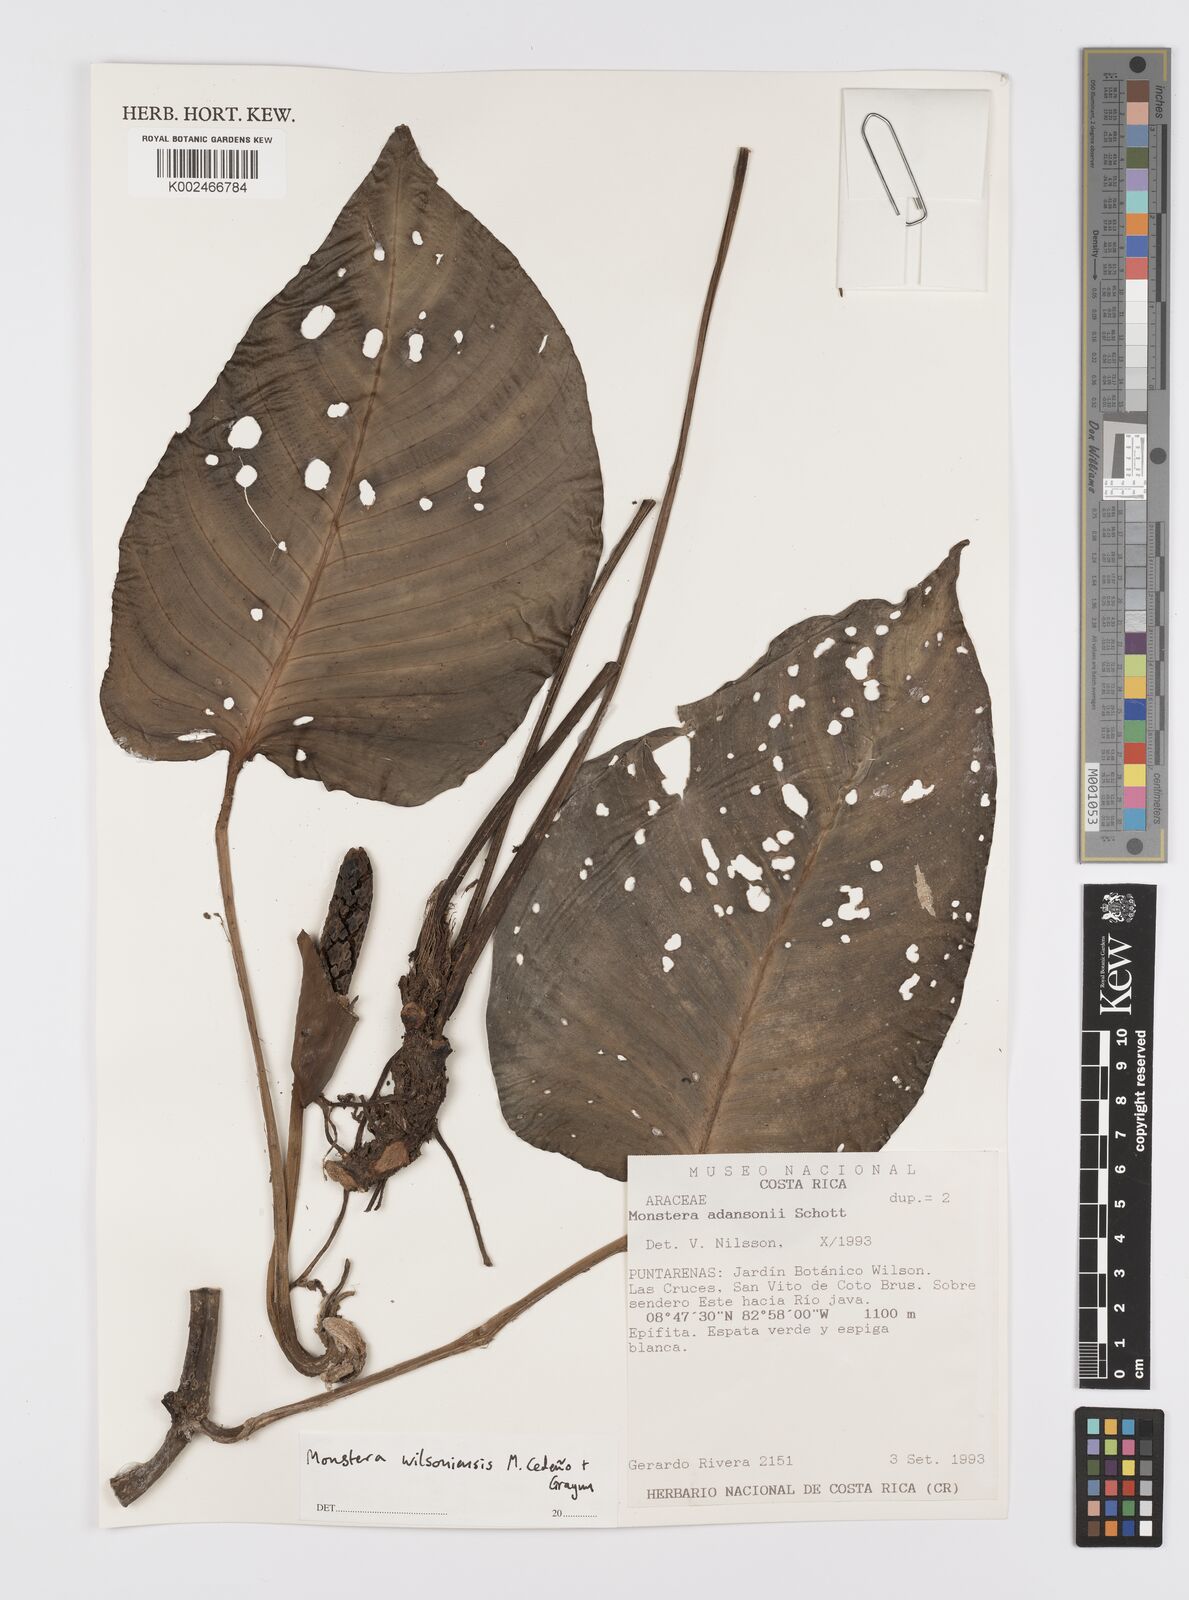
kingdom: Plantae
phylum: Tracheophyta
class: Liliopsida
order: Alismatales
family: Araceae
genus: Monstera
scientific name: Monstera
